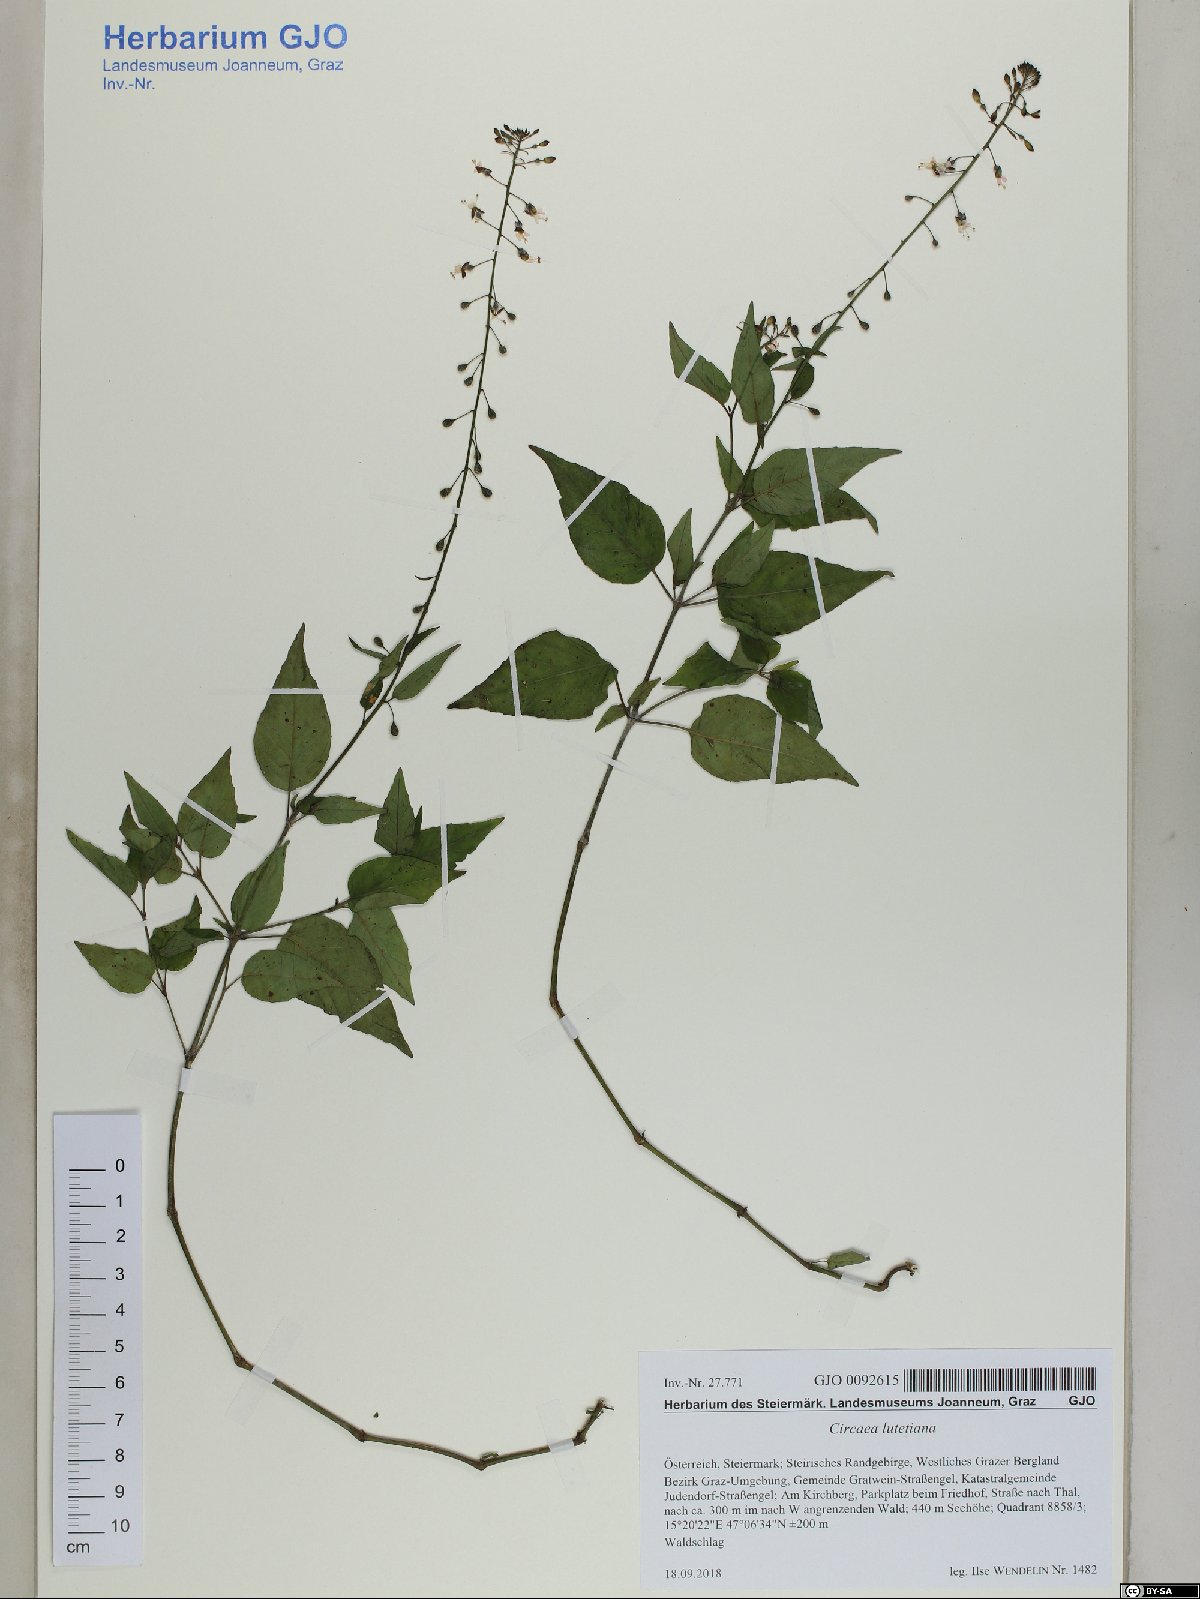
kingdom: Plantae
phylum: Tracheophyta
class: Magnoliopsida
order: Myrtales
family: Onagraceae
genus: Circaea
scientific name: Circaea lutetiana
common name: Enchanter's-nightshade
